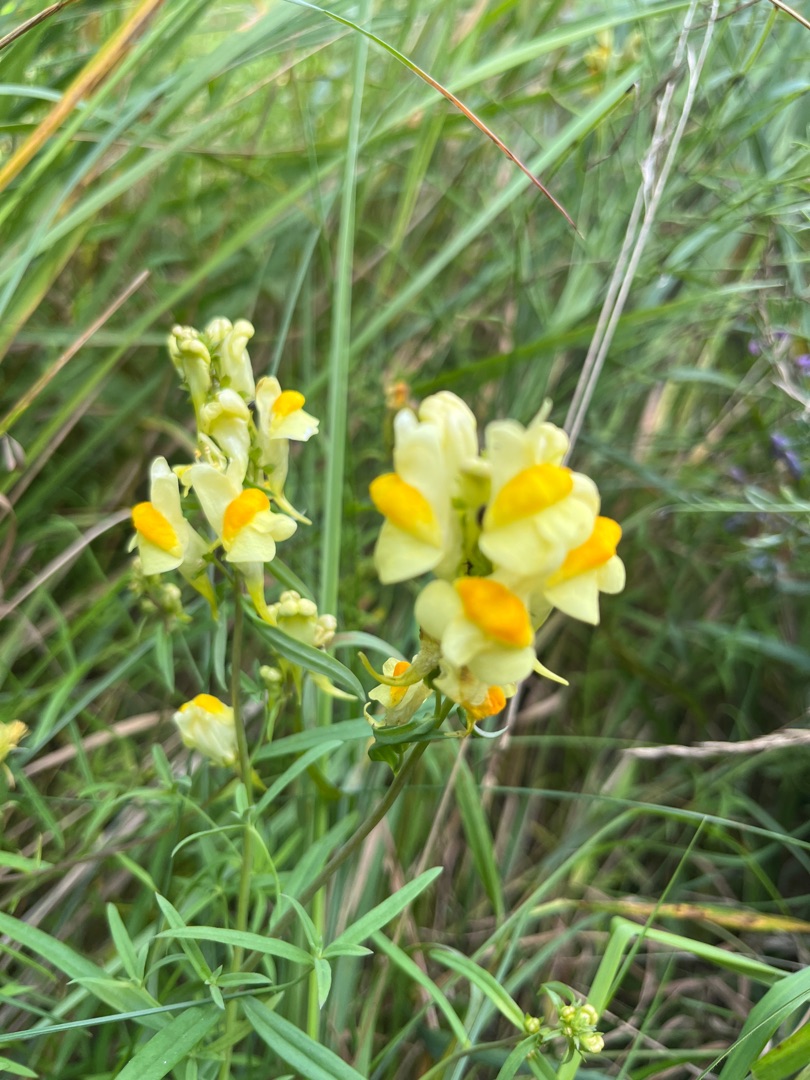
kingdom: Plantae
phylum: Tracheophyta
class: Magnoliopsida
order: Lamiales
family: Plantaginaceae
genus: Linaria
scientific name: Linaria vulgaris
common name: Almindelig torskemund
